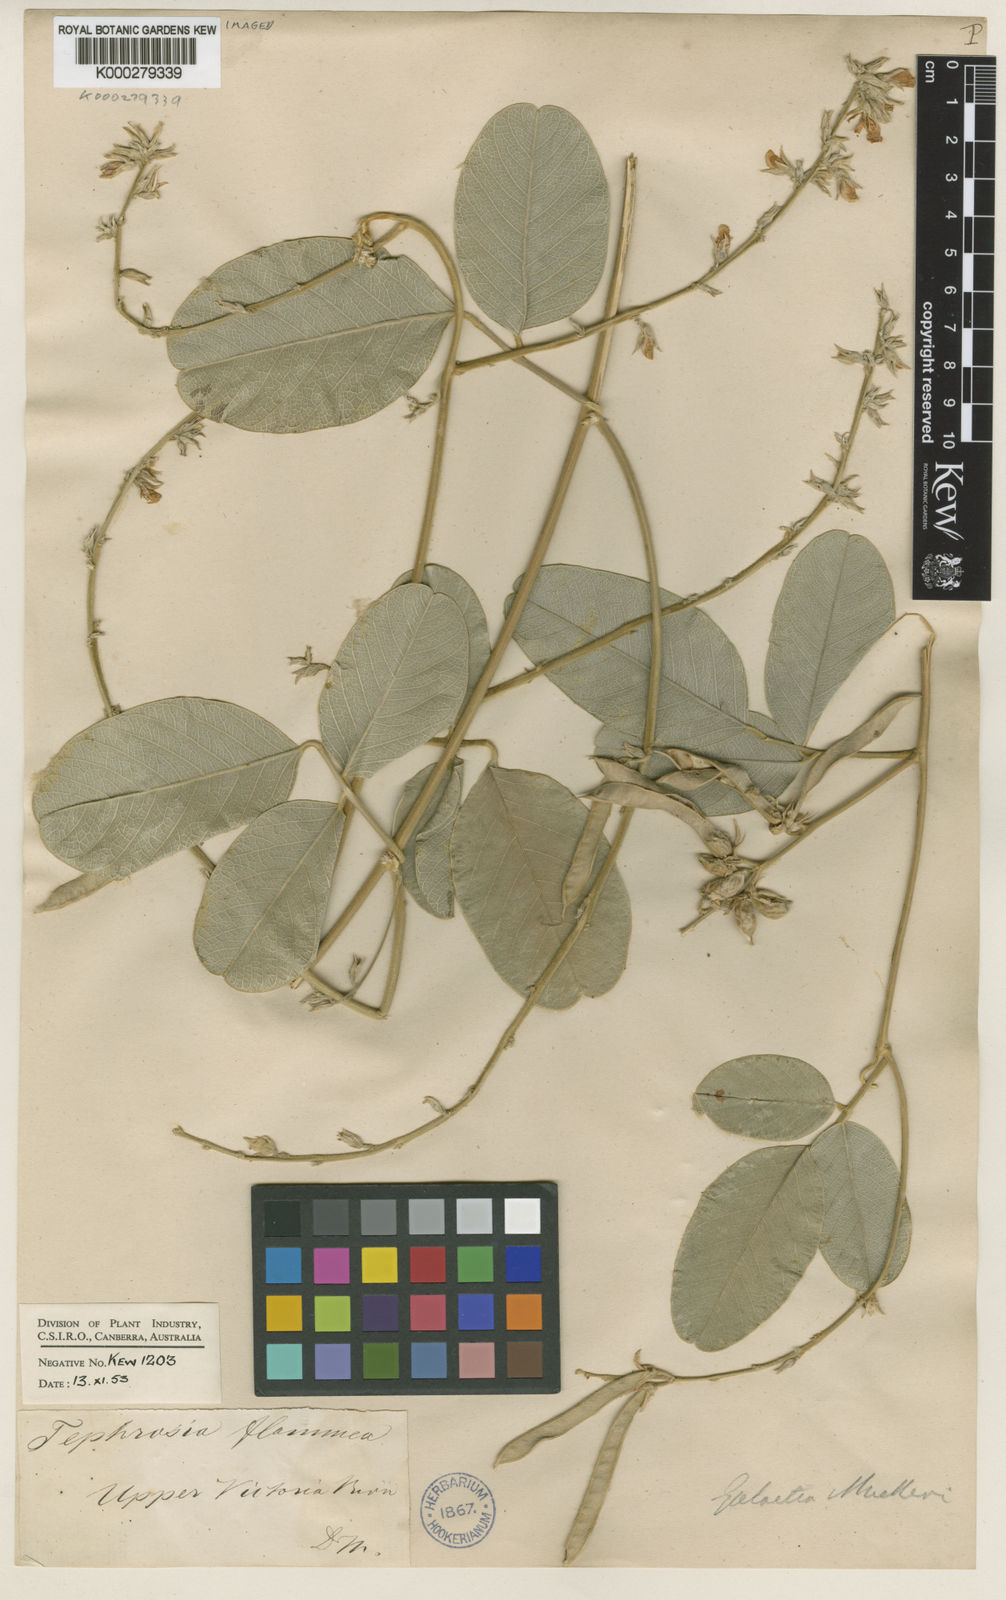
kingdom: Plantae
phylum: Tracheophyta
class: Magnoliopsida
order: Fabales
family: Fabaceae
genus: Galactia
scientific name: Galactia muelleri
